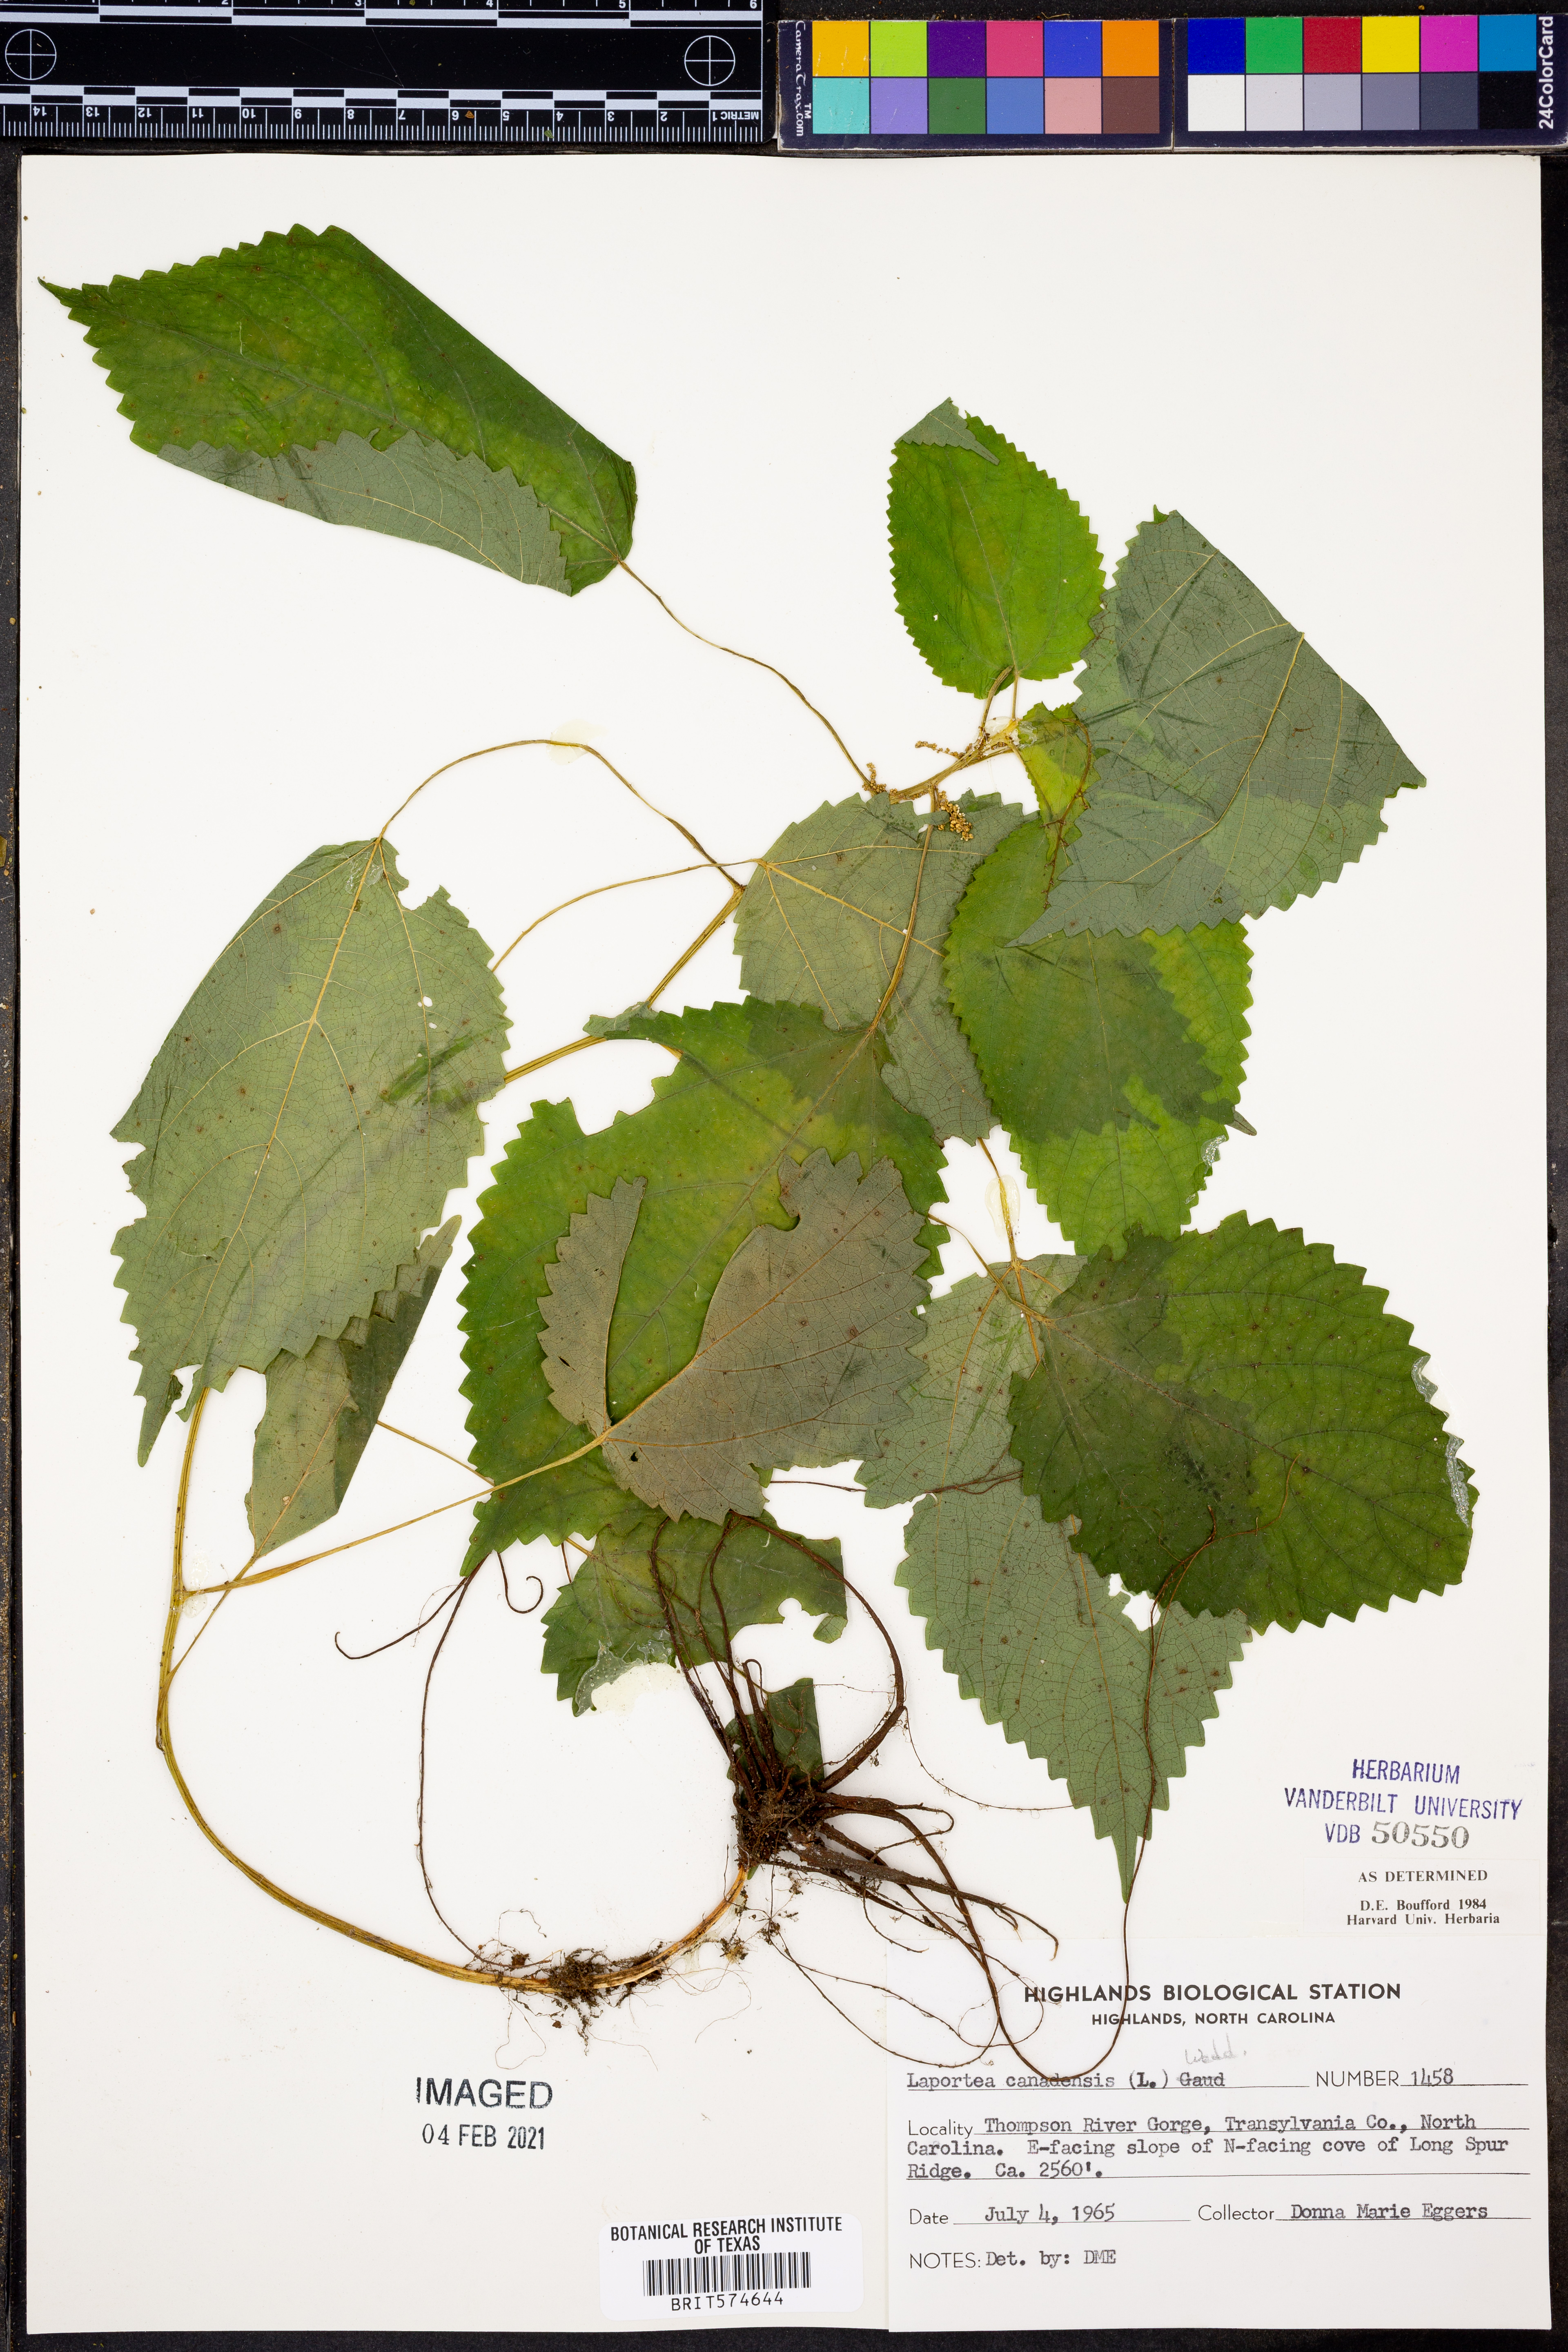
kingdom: Plantae
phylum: Tracheophyta
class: Magnoliopsida
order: Rosales
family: Urticaceae
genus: Laportea
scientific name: Laportea canadensis
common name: Canada nettle
